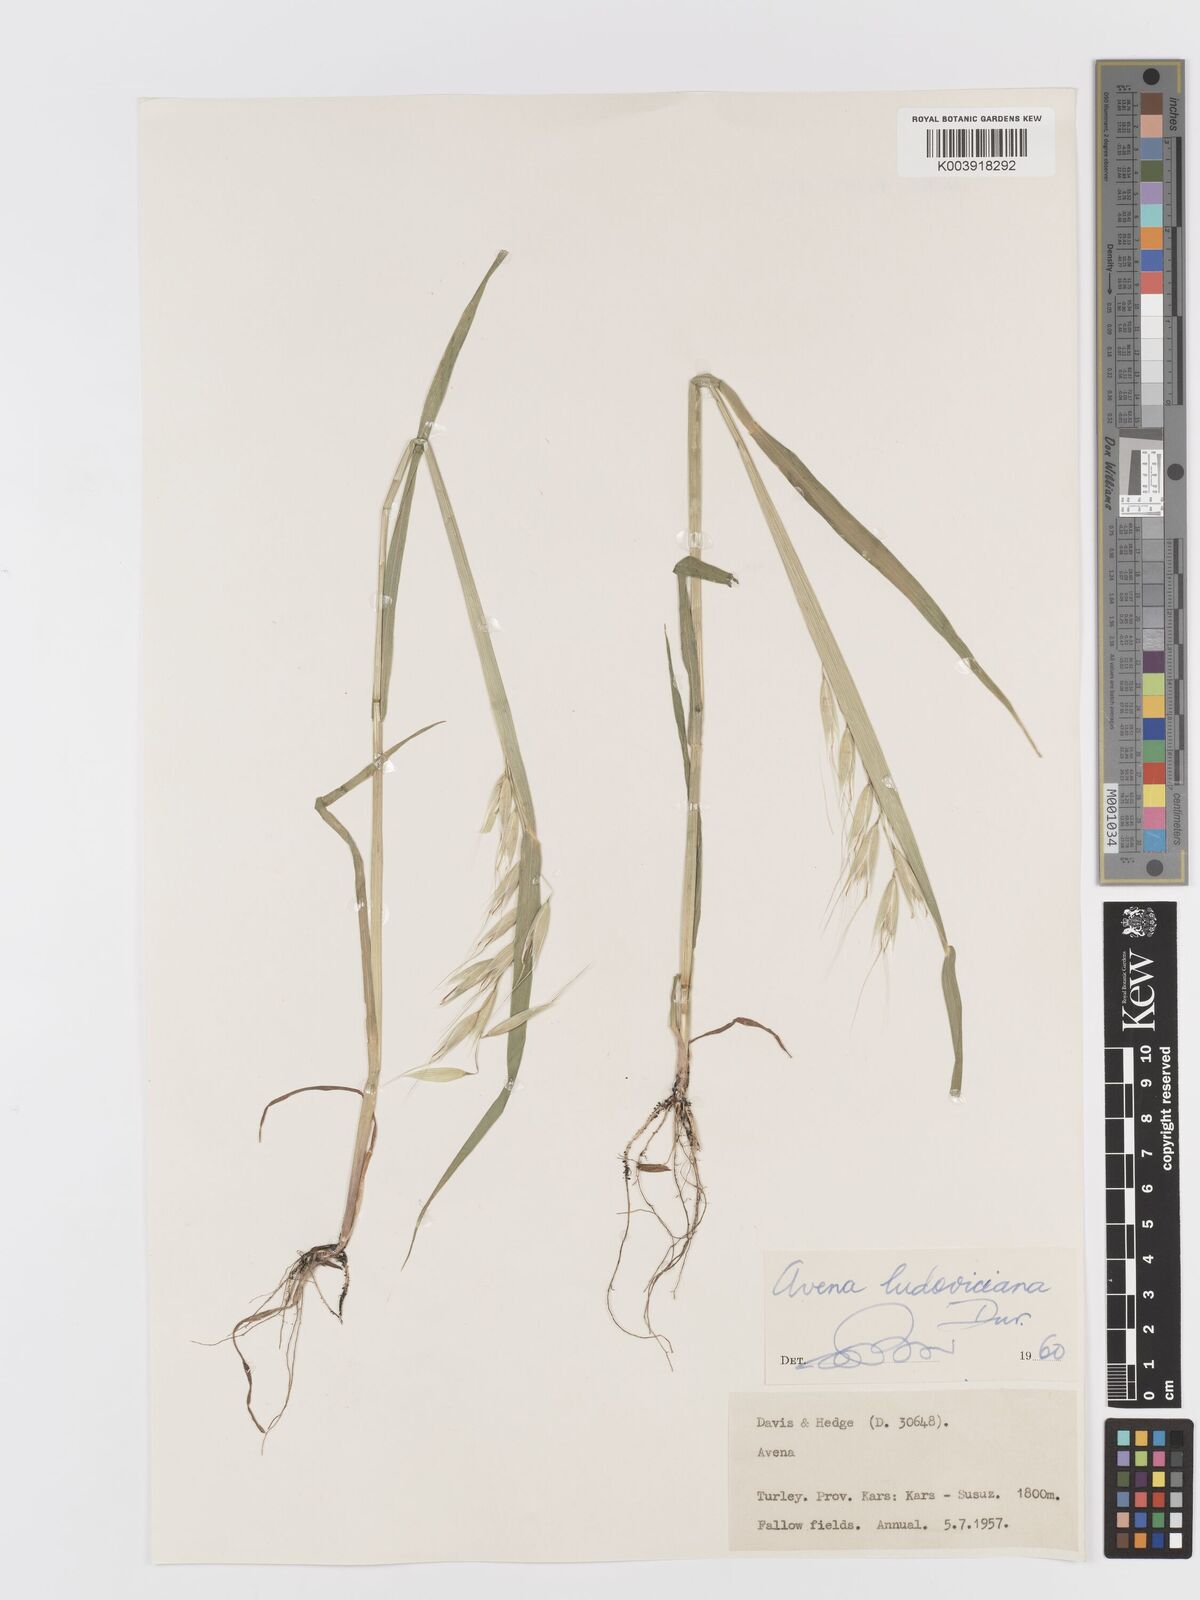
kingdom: Plantae
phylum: Tracheophyta
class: Liliopsida
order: Poales
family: Poaceae
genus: Avena
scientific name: Avena sterilis
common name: Animated oat
